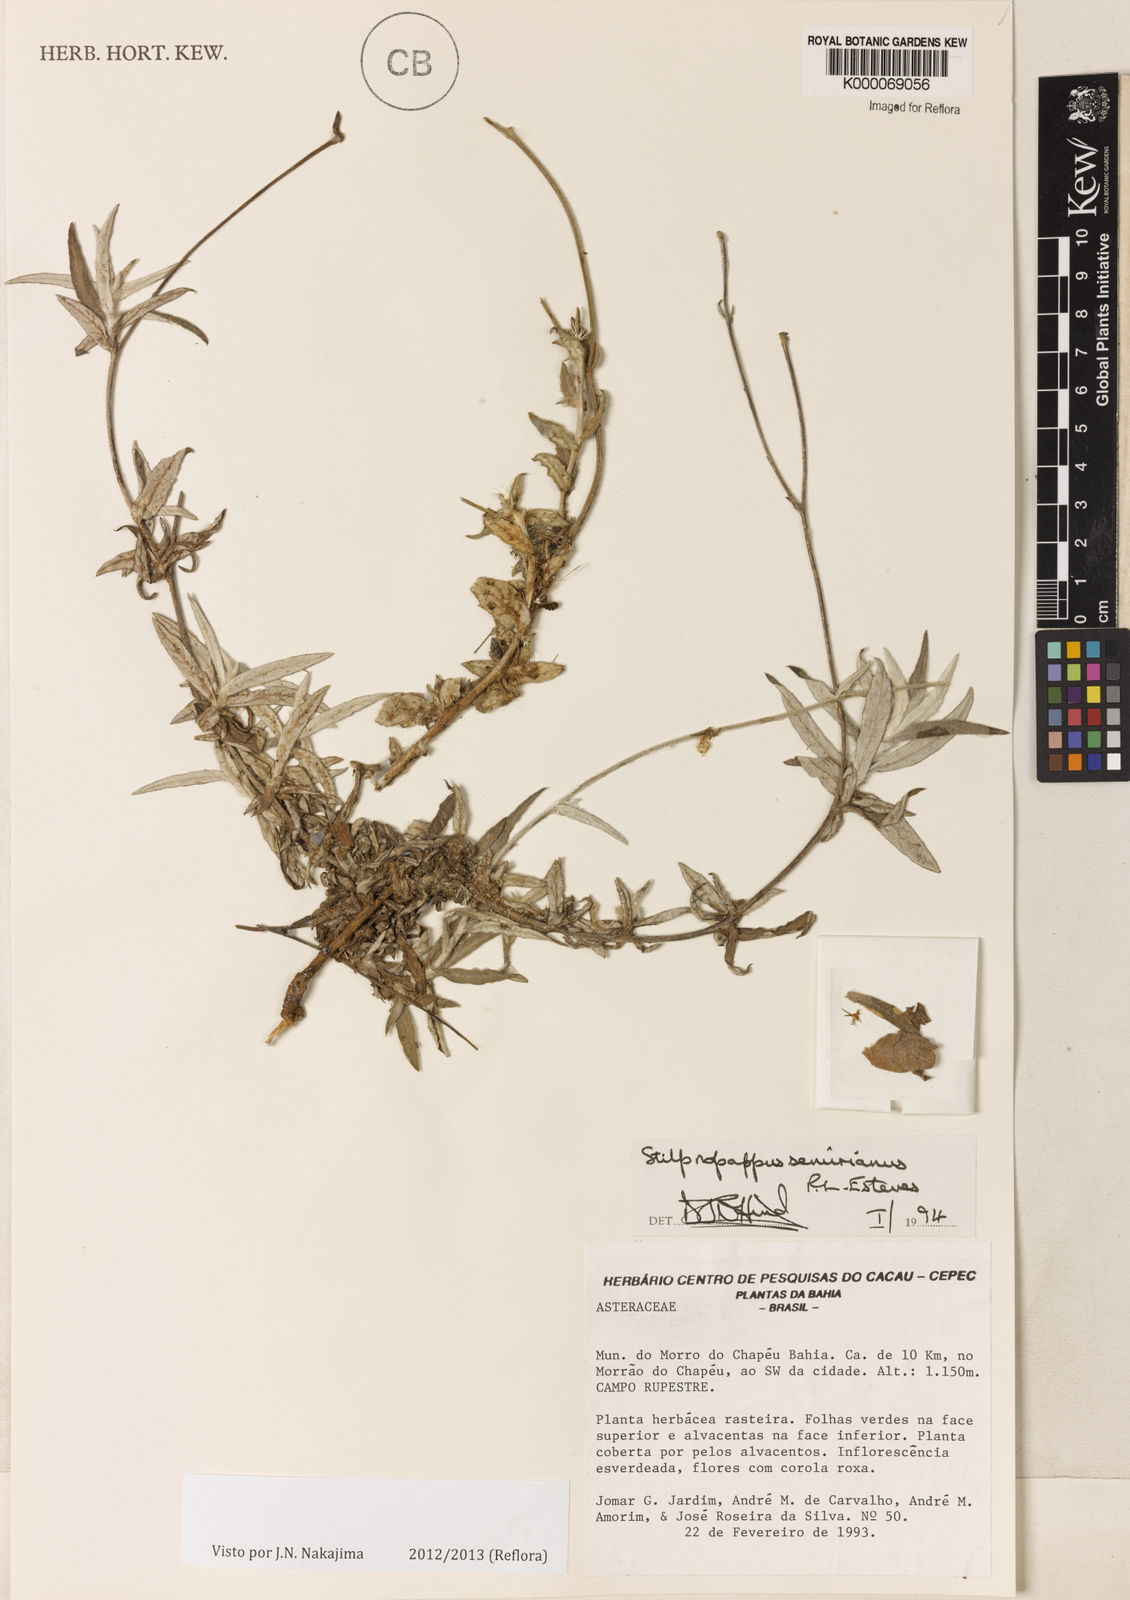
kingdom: Plantae
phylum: Tracheophyta
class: Magnoliopsida
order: Asterales
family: Asteraceae
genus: Stilpnopappus
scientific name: Stilpnopappus semirianus
